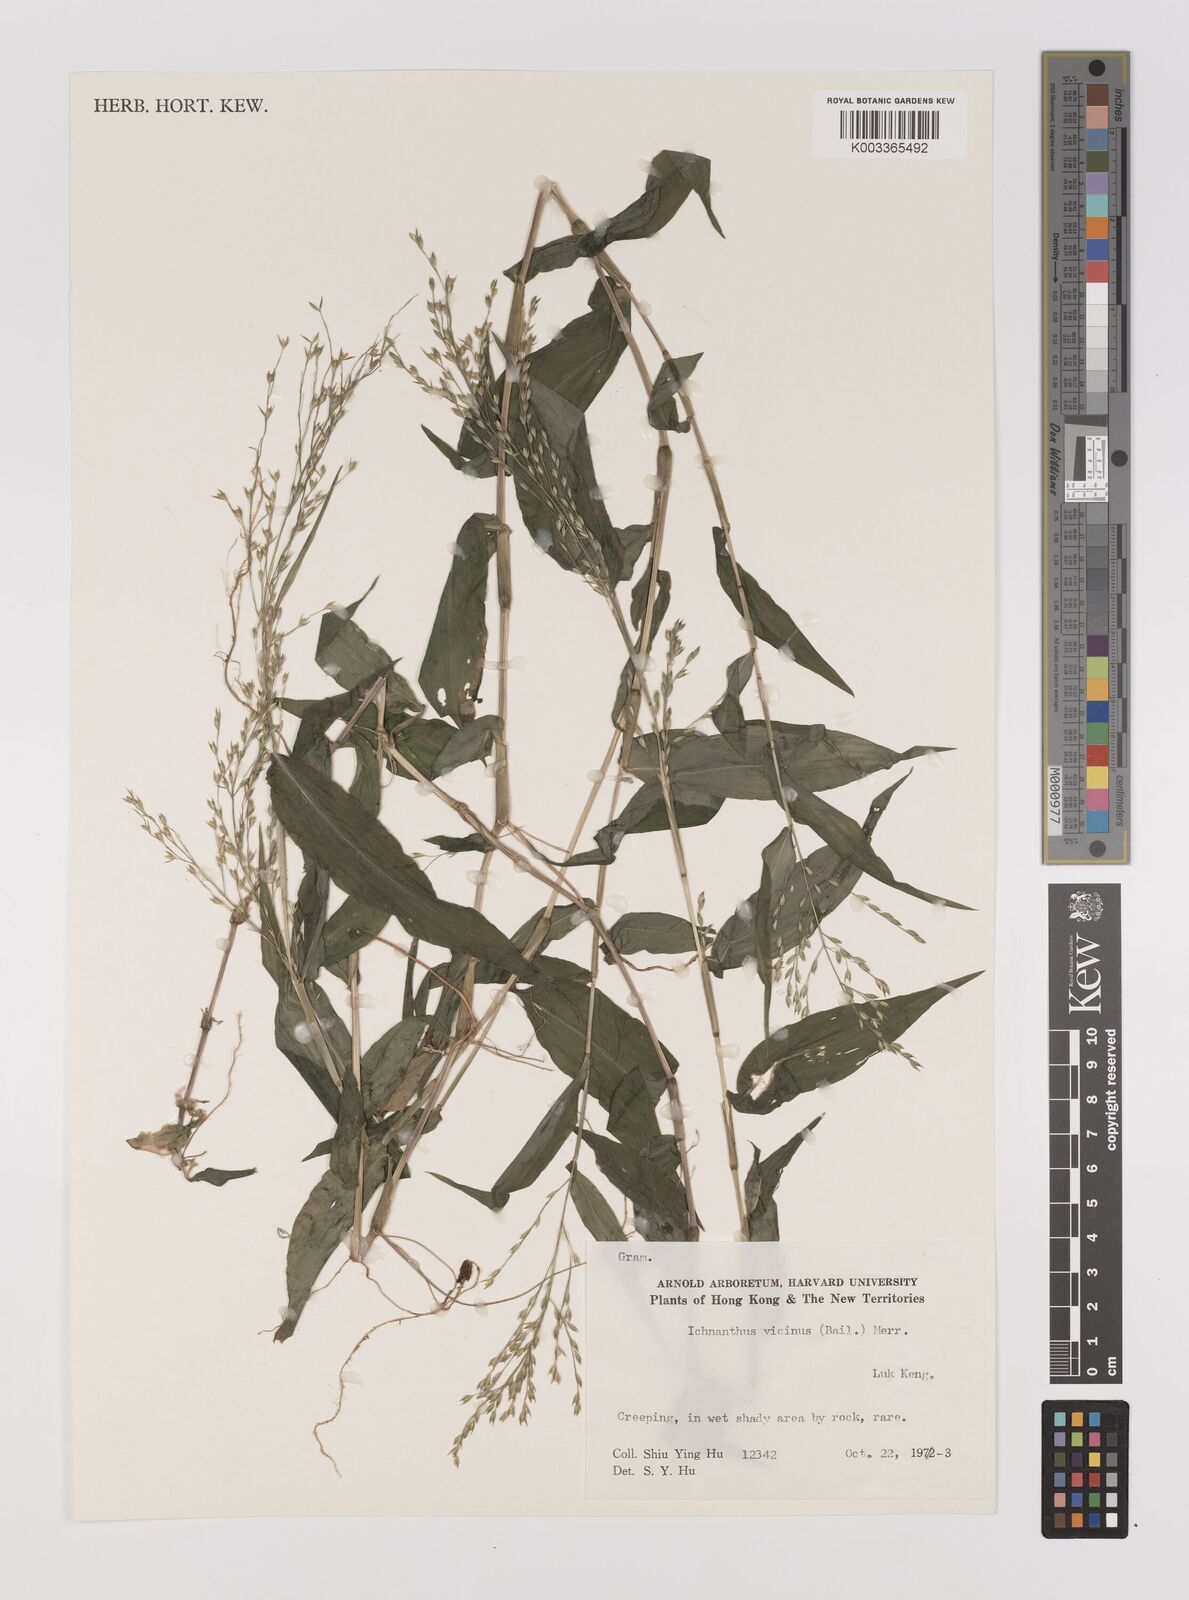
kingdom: Plantae
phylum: Tracheophyta
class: Liliopsida
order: Poales
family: Poaceae
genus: Ichnanthus
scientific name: Ichnanthus pallens
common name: Water grass
